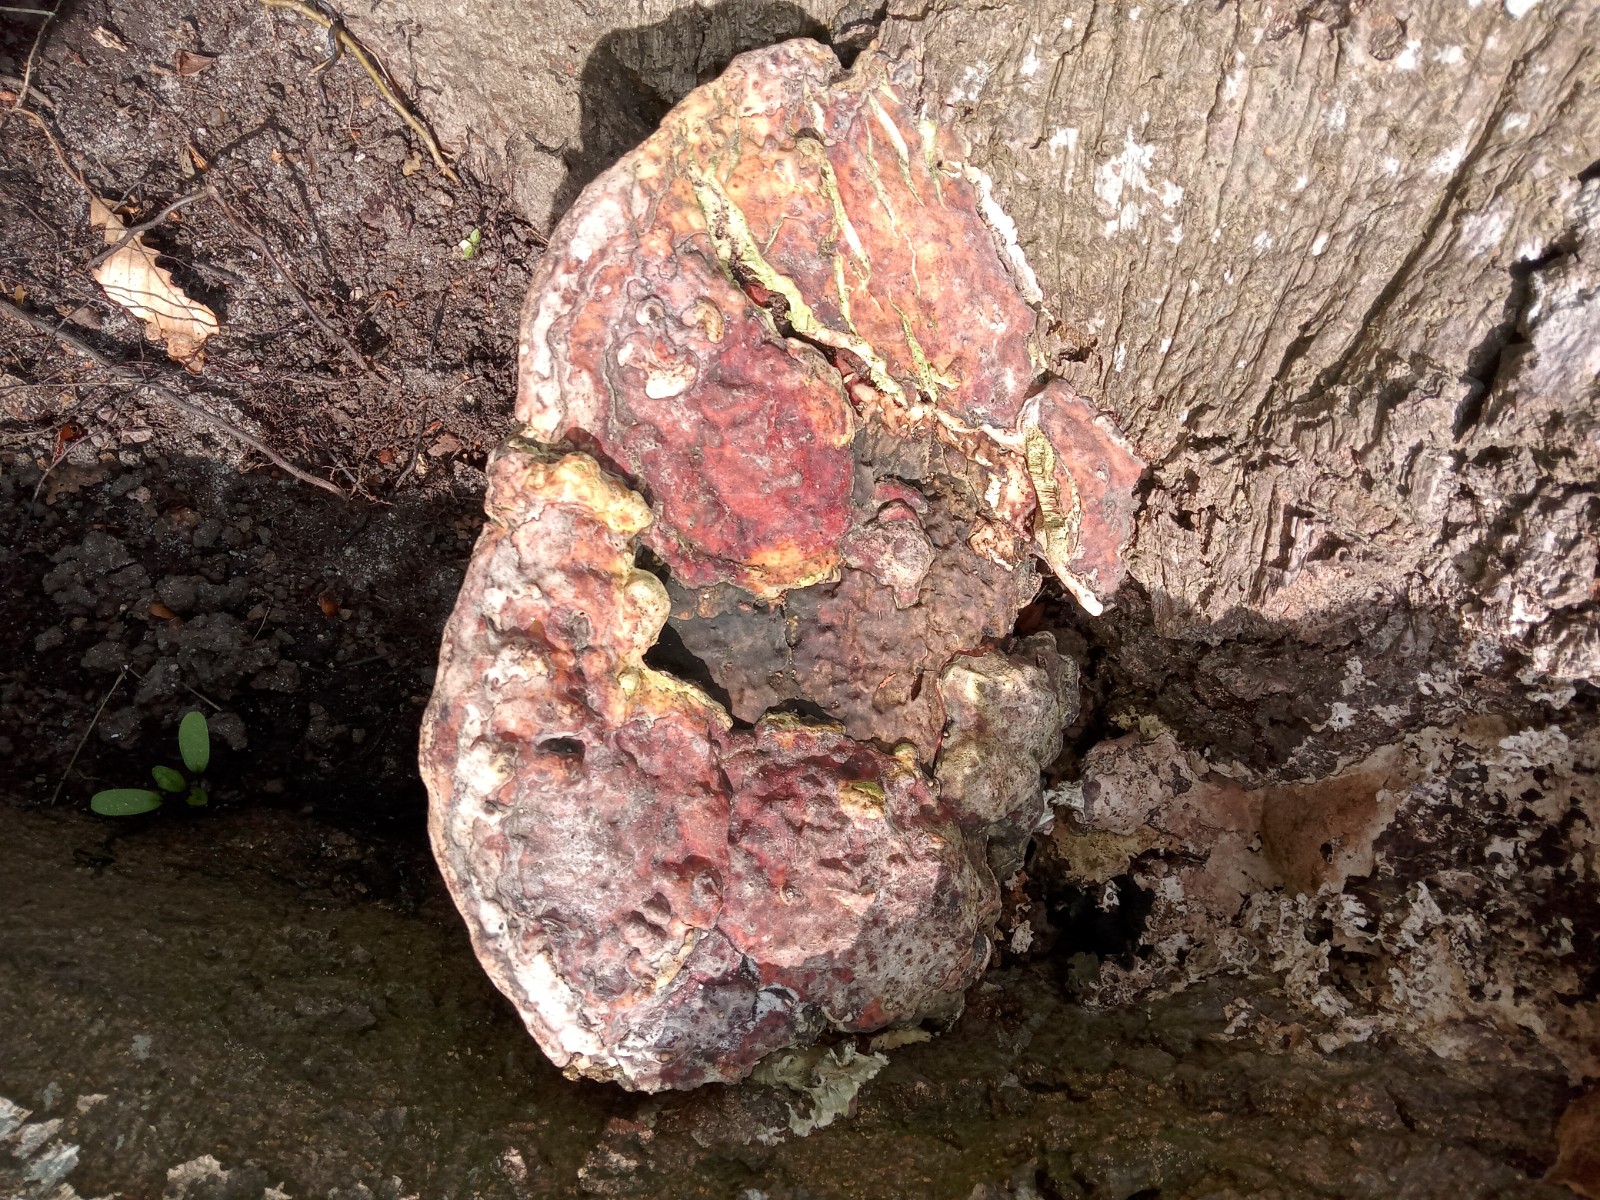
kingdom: Fungi
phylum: Basidiomycota
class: Agaricomycetes
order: Polyporales
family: Polyporaceae
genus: Vanderbylia
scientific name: Vanderbylia fraxinea
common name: stor kanelporesvamp
